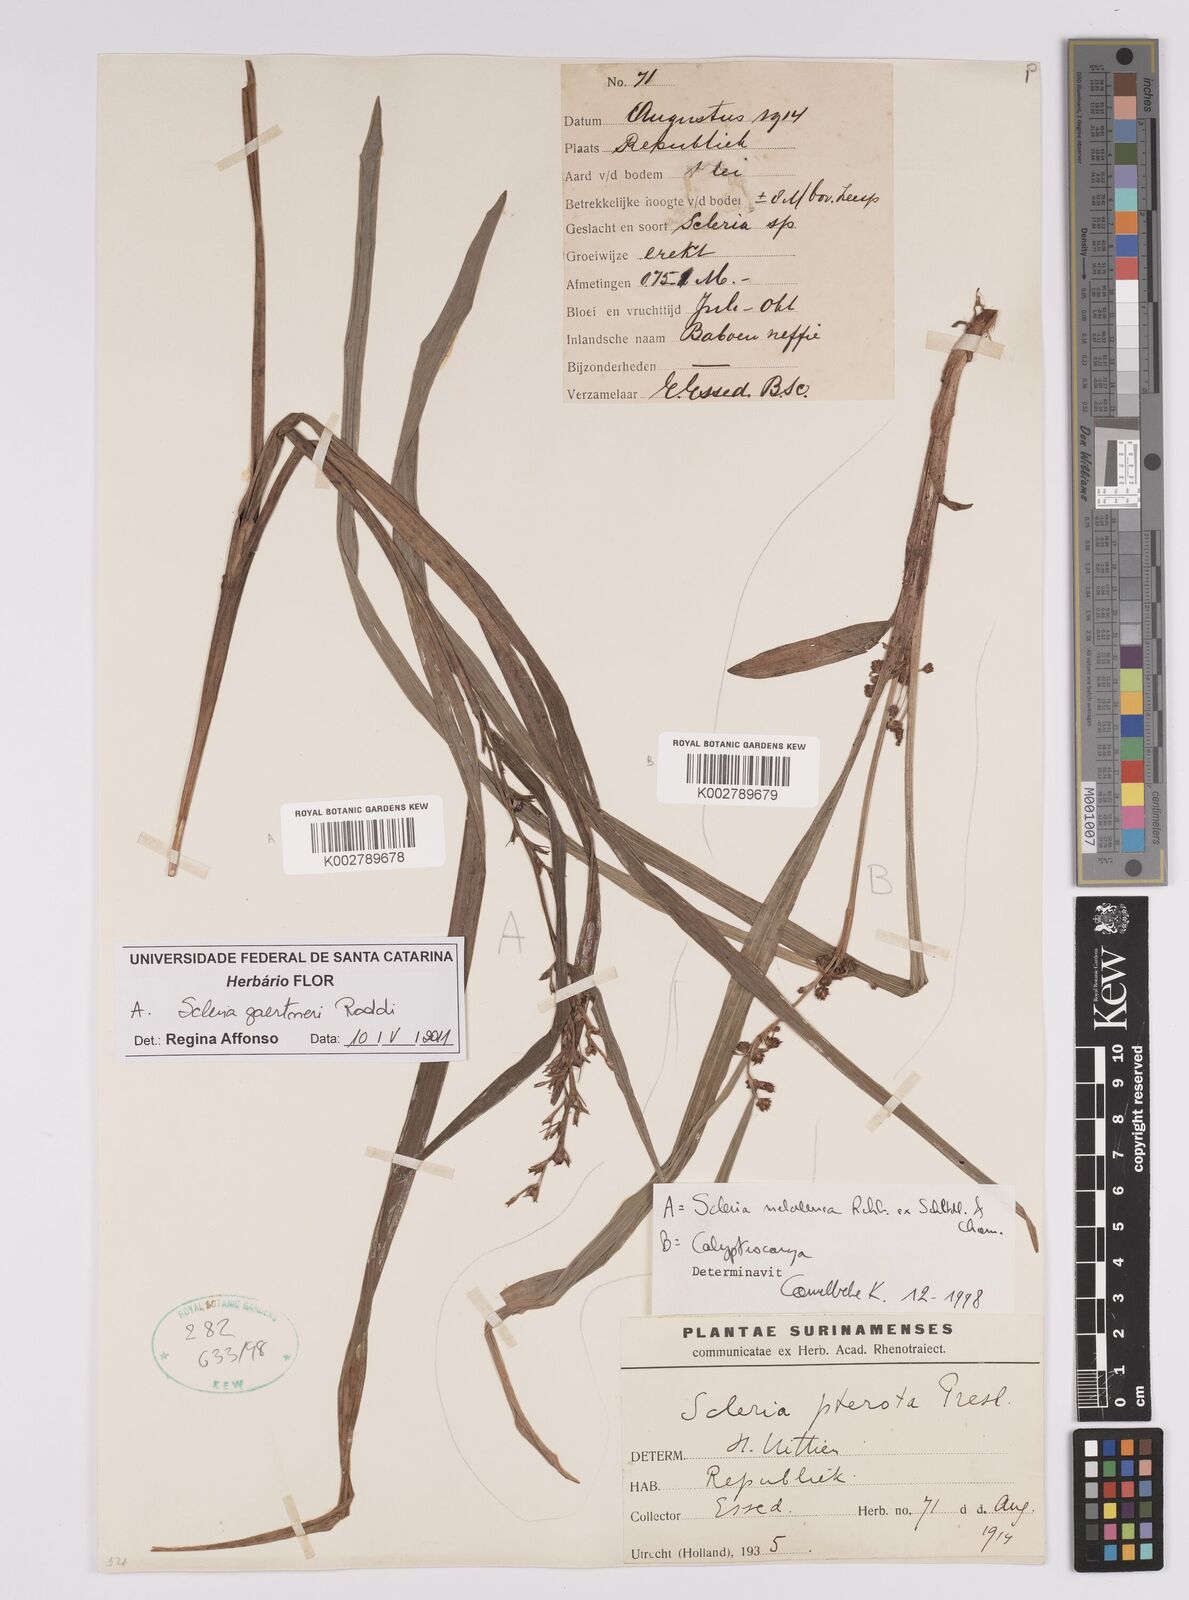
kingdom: Plantae
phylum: Tracheophyta
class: Liliopsida
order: Poales
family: Cyperaceae
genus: Scleria
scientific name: Scleria gaertneri
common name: Cortadera blanca
